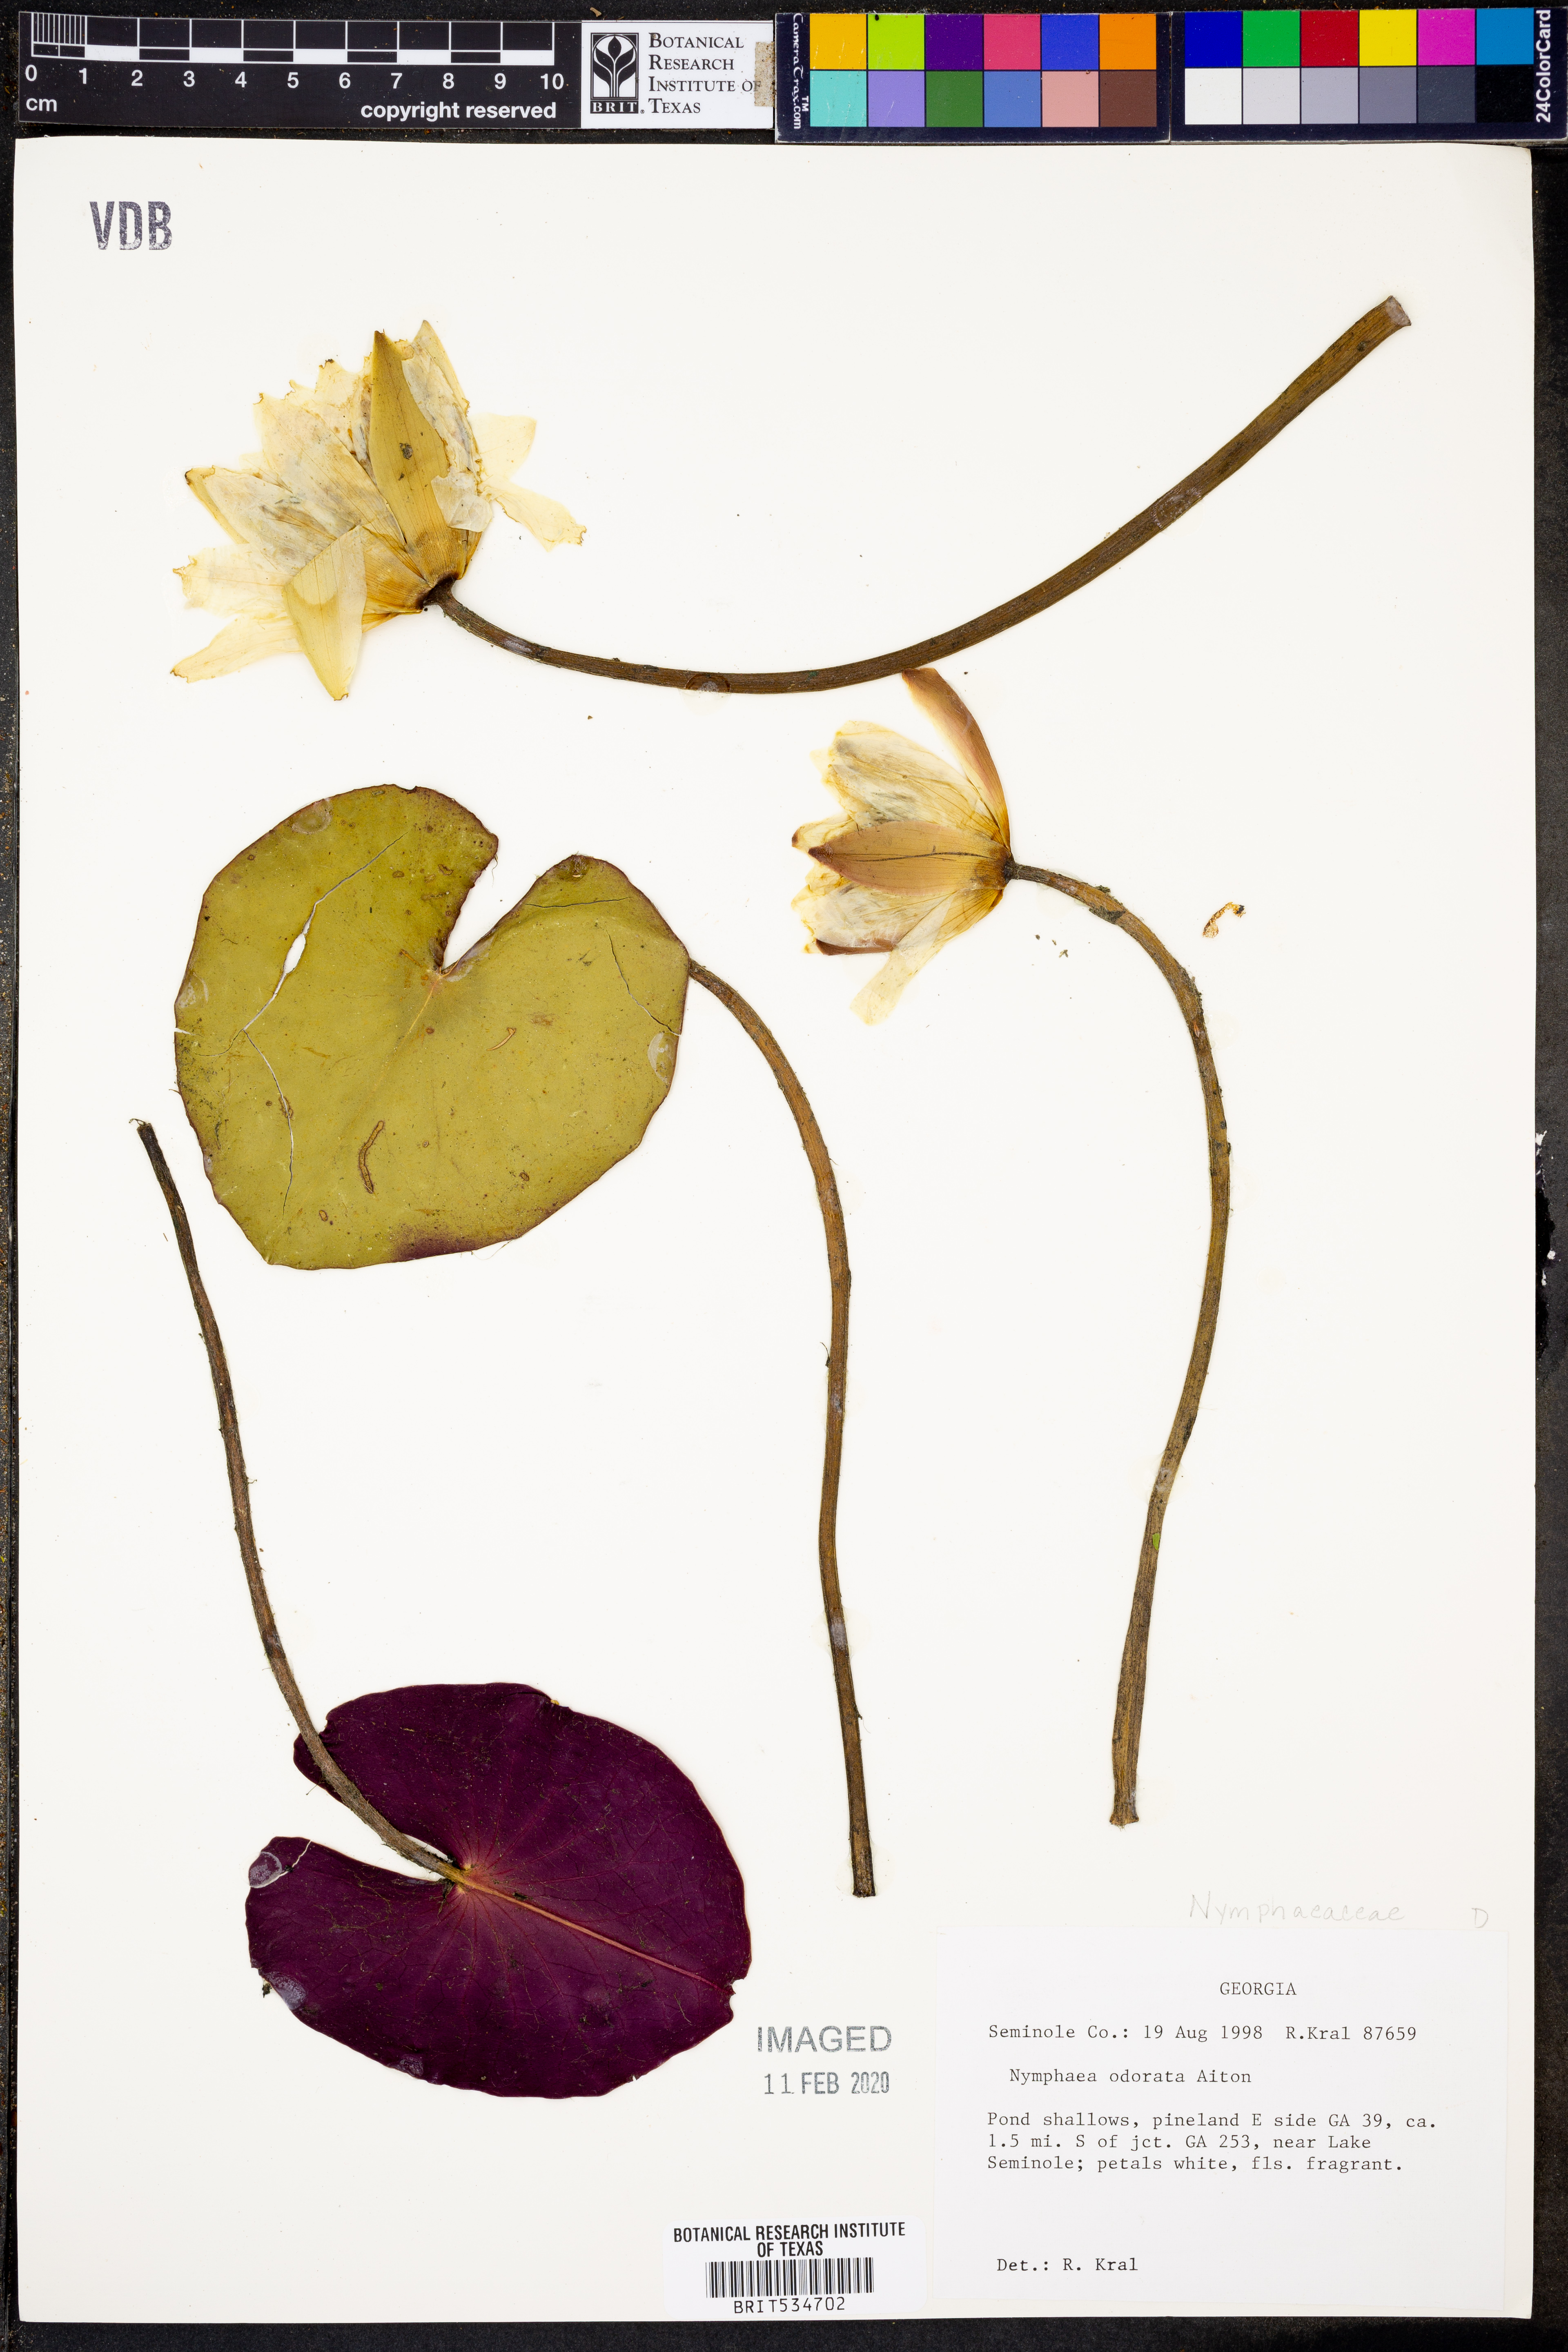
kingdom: Plantae
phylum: Tracheophyta
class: Magnoliopsida
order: Nymphaeales
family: Nymphaeaceae
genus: Nymphaea
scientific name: Nymphaea odorata
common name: Fragrant water-lily
